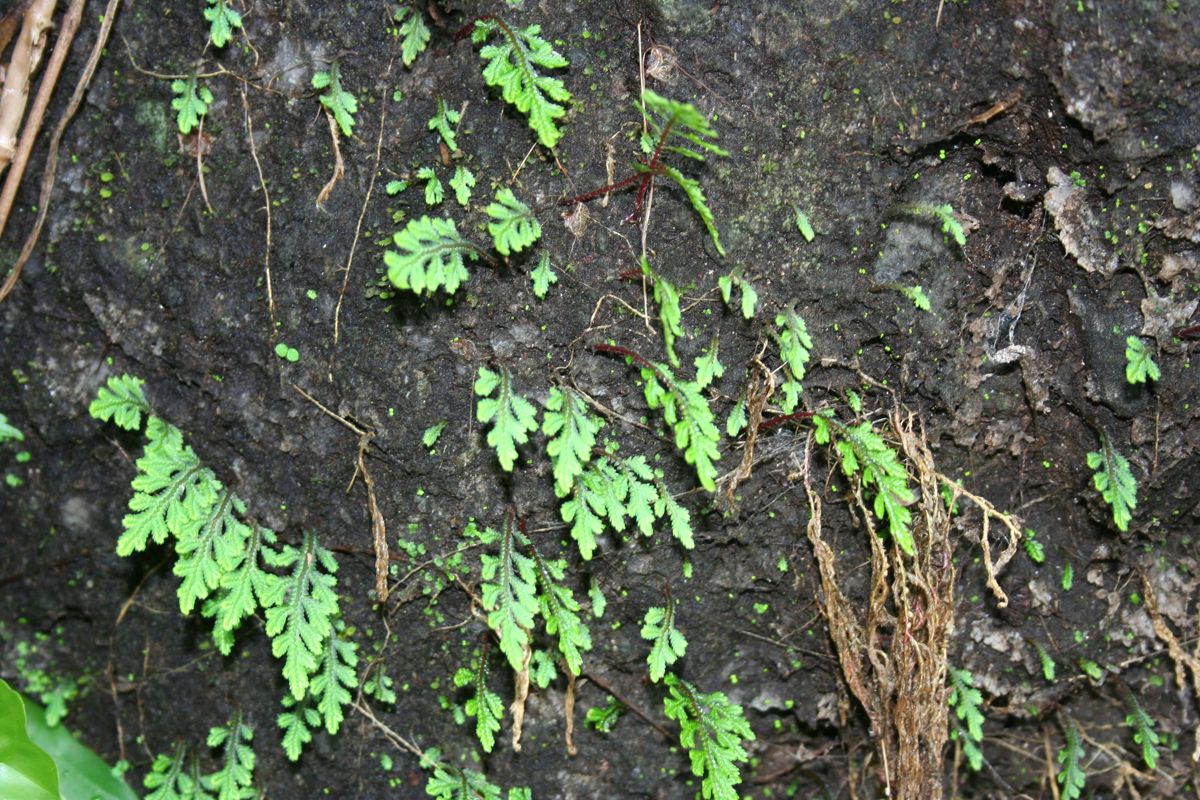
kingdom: Plantae
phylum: Tracheophyta
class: Lycopodiopsida
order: Selaginellales
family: Selaginellaceae
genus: Selaginella
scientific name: Selaginella hoffmannii
